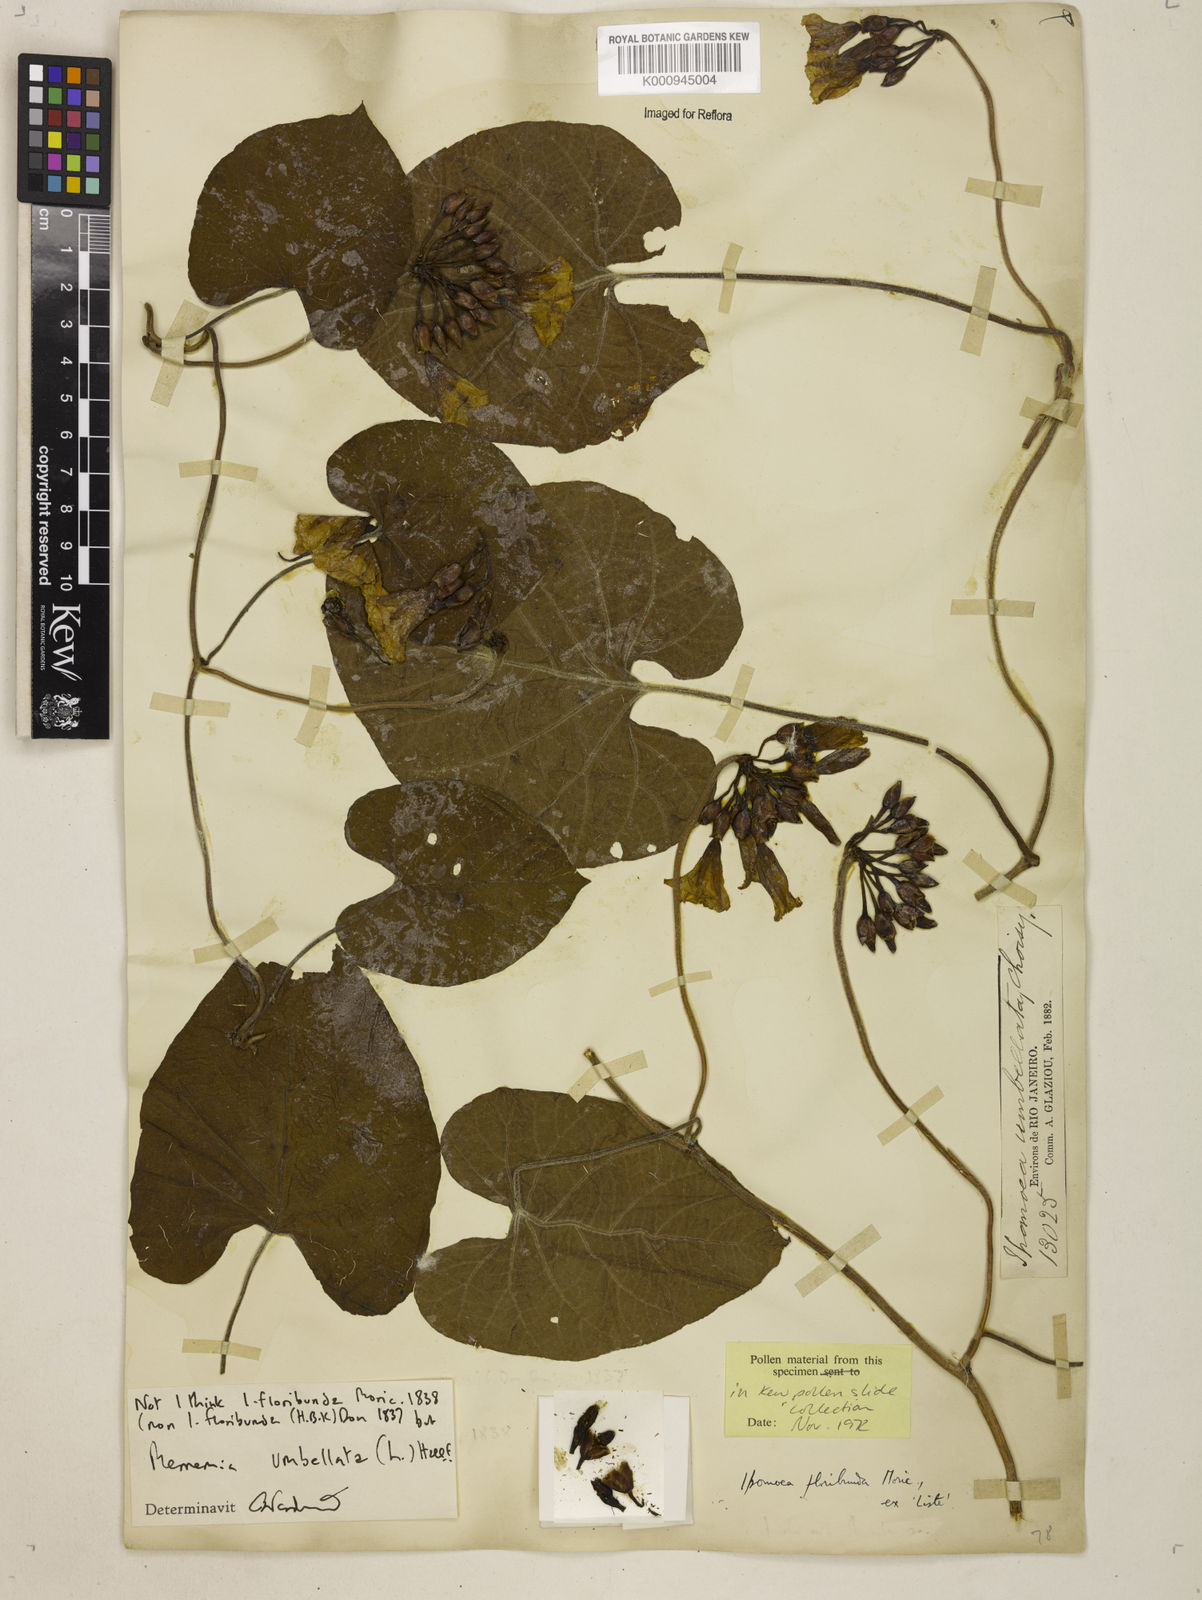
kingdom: Plantae
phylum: Tracheophyta
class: Magnoliopsida
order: Solanales
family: Convolvulaceae
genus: Camonea
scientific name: Camonea umbellata
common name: Hogvine
